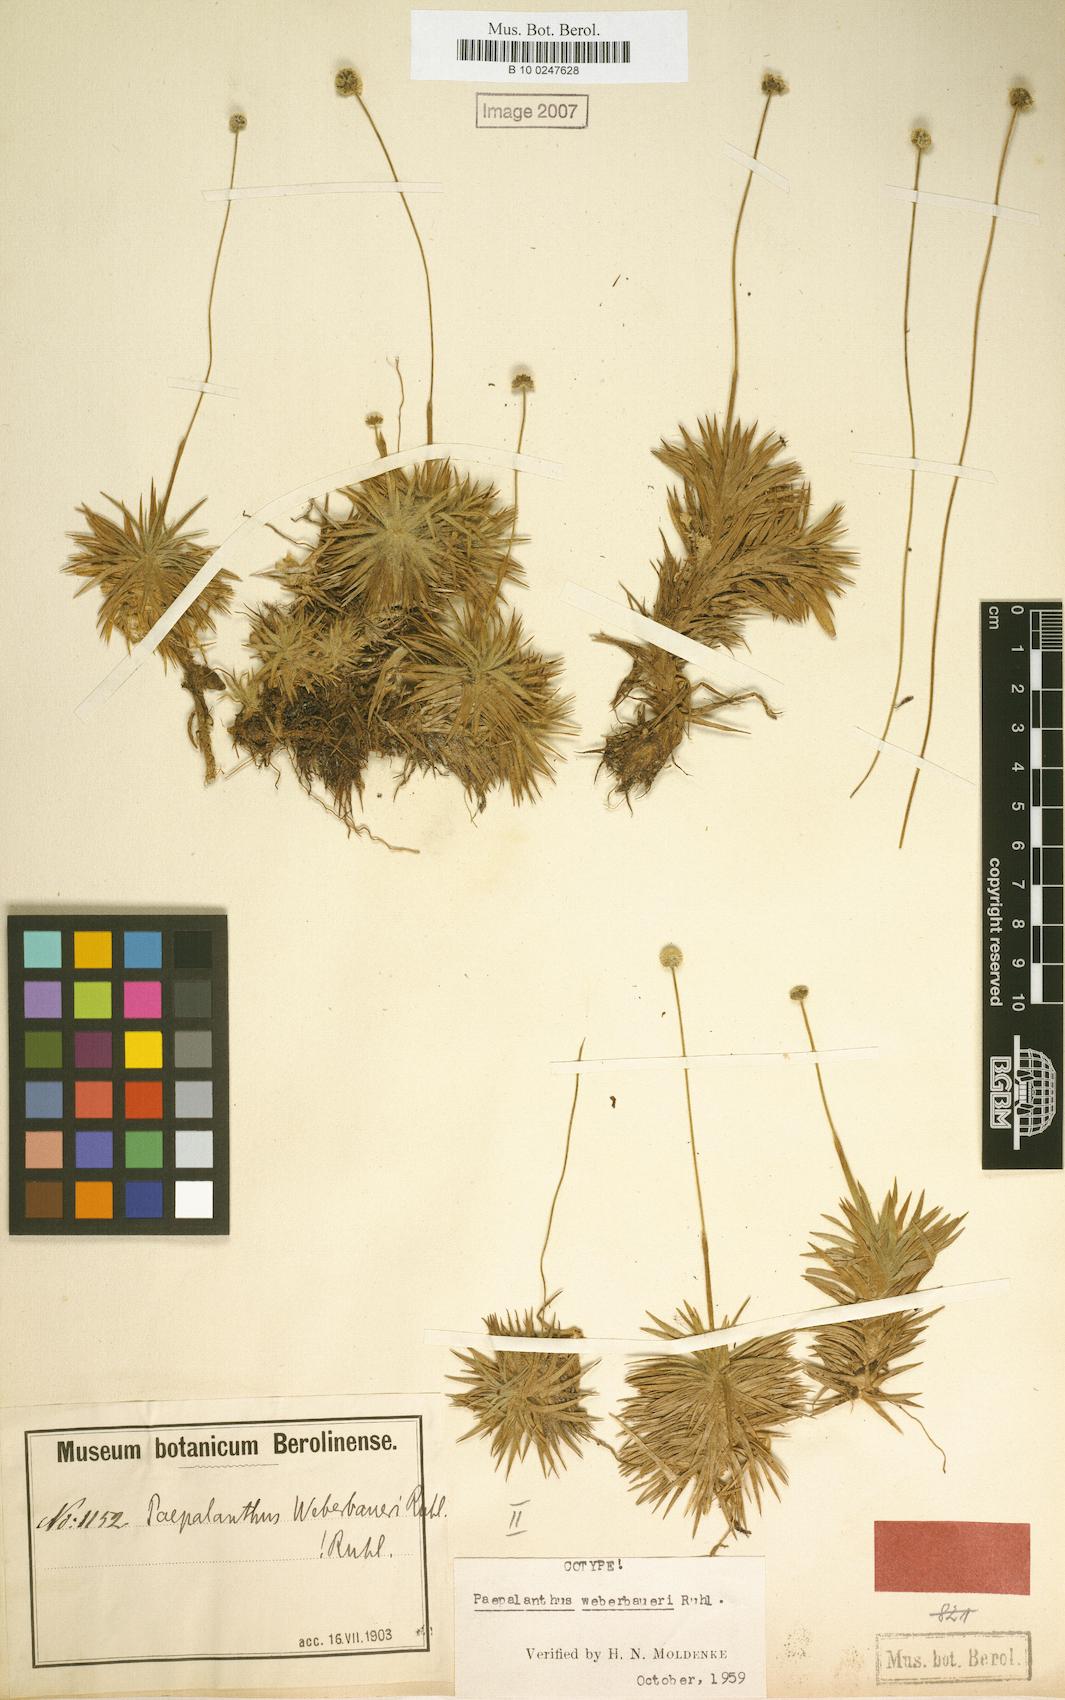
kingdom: Plantae
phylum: Tracheophyta
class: Liliopsida
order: Poales
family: Eriocaulaceae
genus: Paepalanthus
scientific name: Paepalanthus weberbaueri
